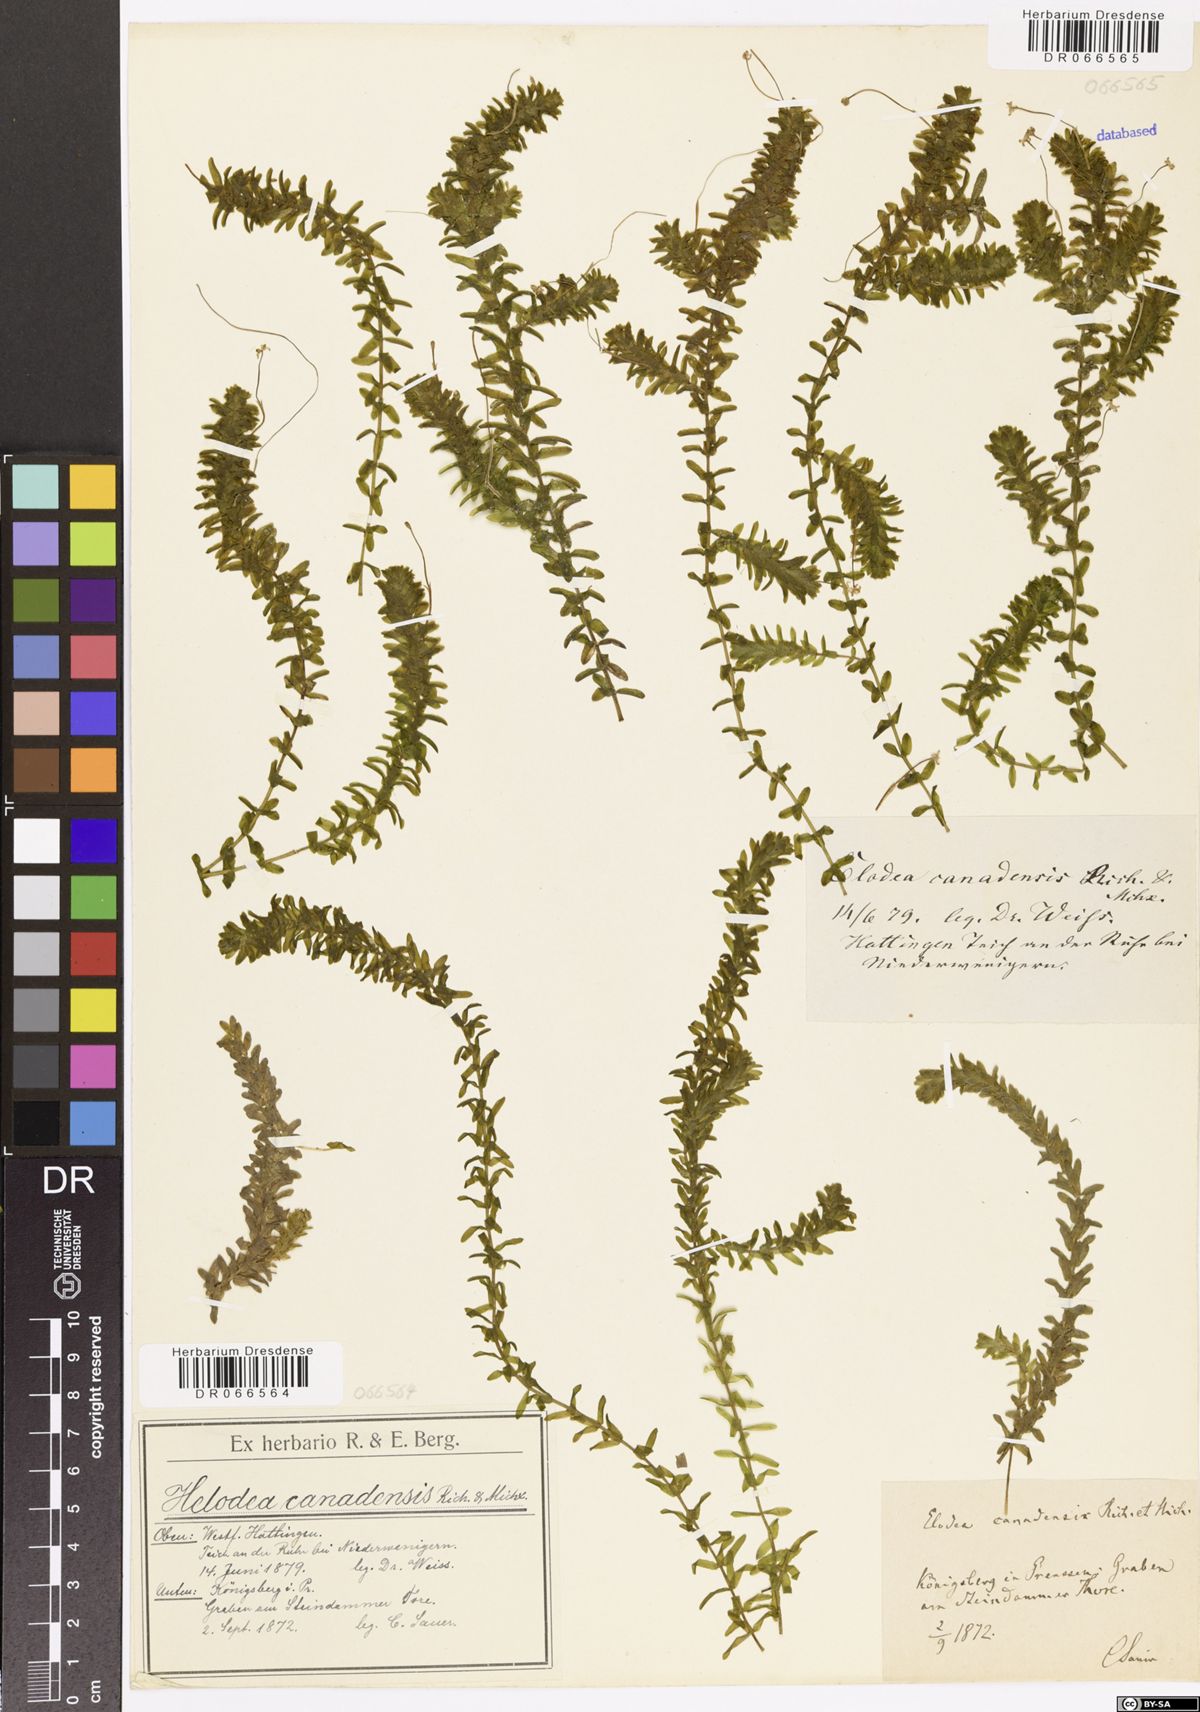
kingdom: Plantae
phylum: Tracheophyta
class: Liliopsida
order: Alismatales
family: Hydrocharitaceae
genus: Elodea
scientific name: Elodea canadensis
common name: Canadian waterweed
